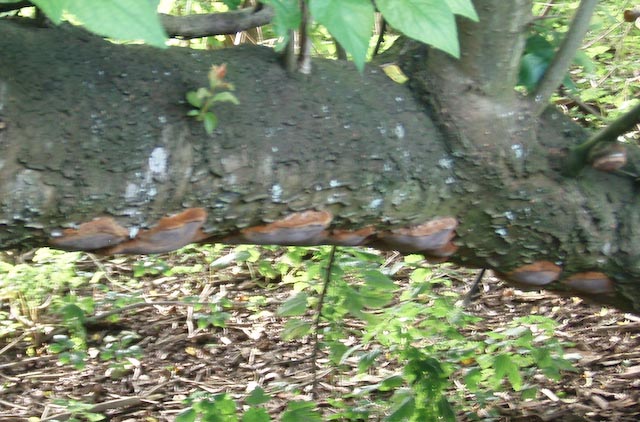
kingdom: Fungi
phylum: Basidiomycota
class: Agaricomycetes
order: Hymenochaetales
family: Hymenochaetaceae
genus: Phellinus
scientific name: Phellinus pomaceus
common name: blomme-ildporesvamp
